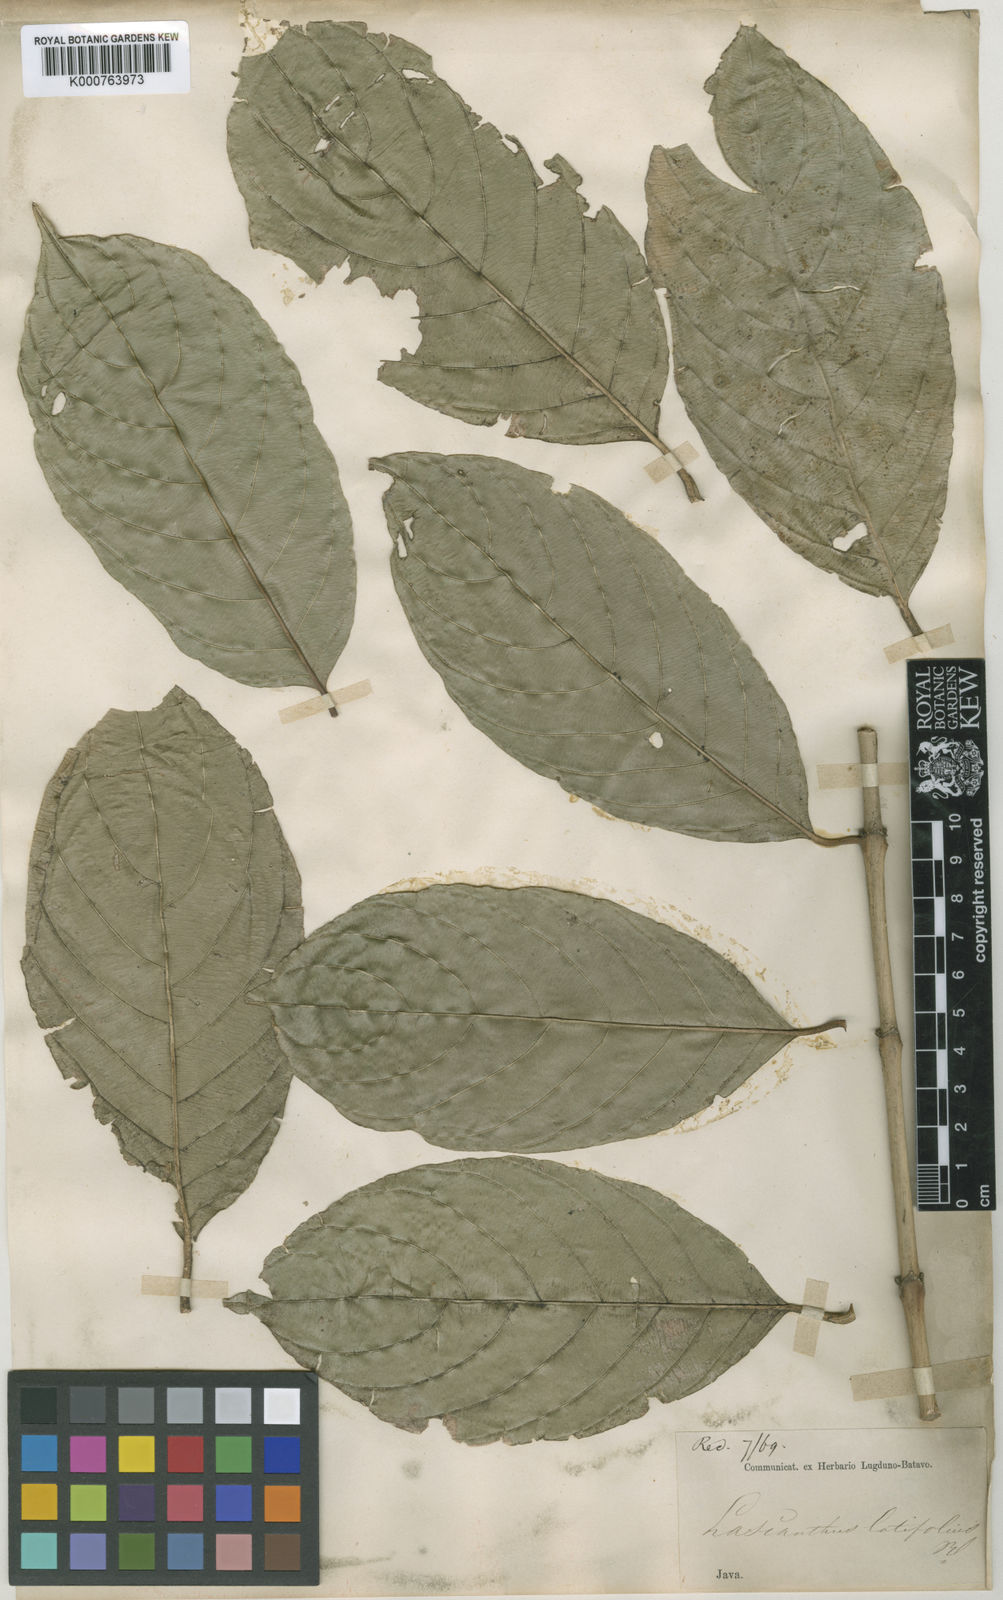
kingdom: Plantae
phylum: Tracheophyta
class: Magnoliopsida
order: Gentianales
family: Rubiaceae
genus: Lasianthus
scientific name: Lasianthus latifolius
